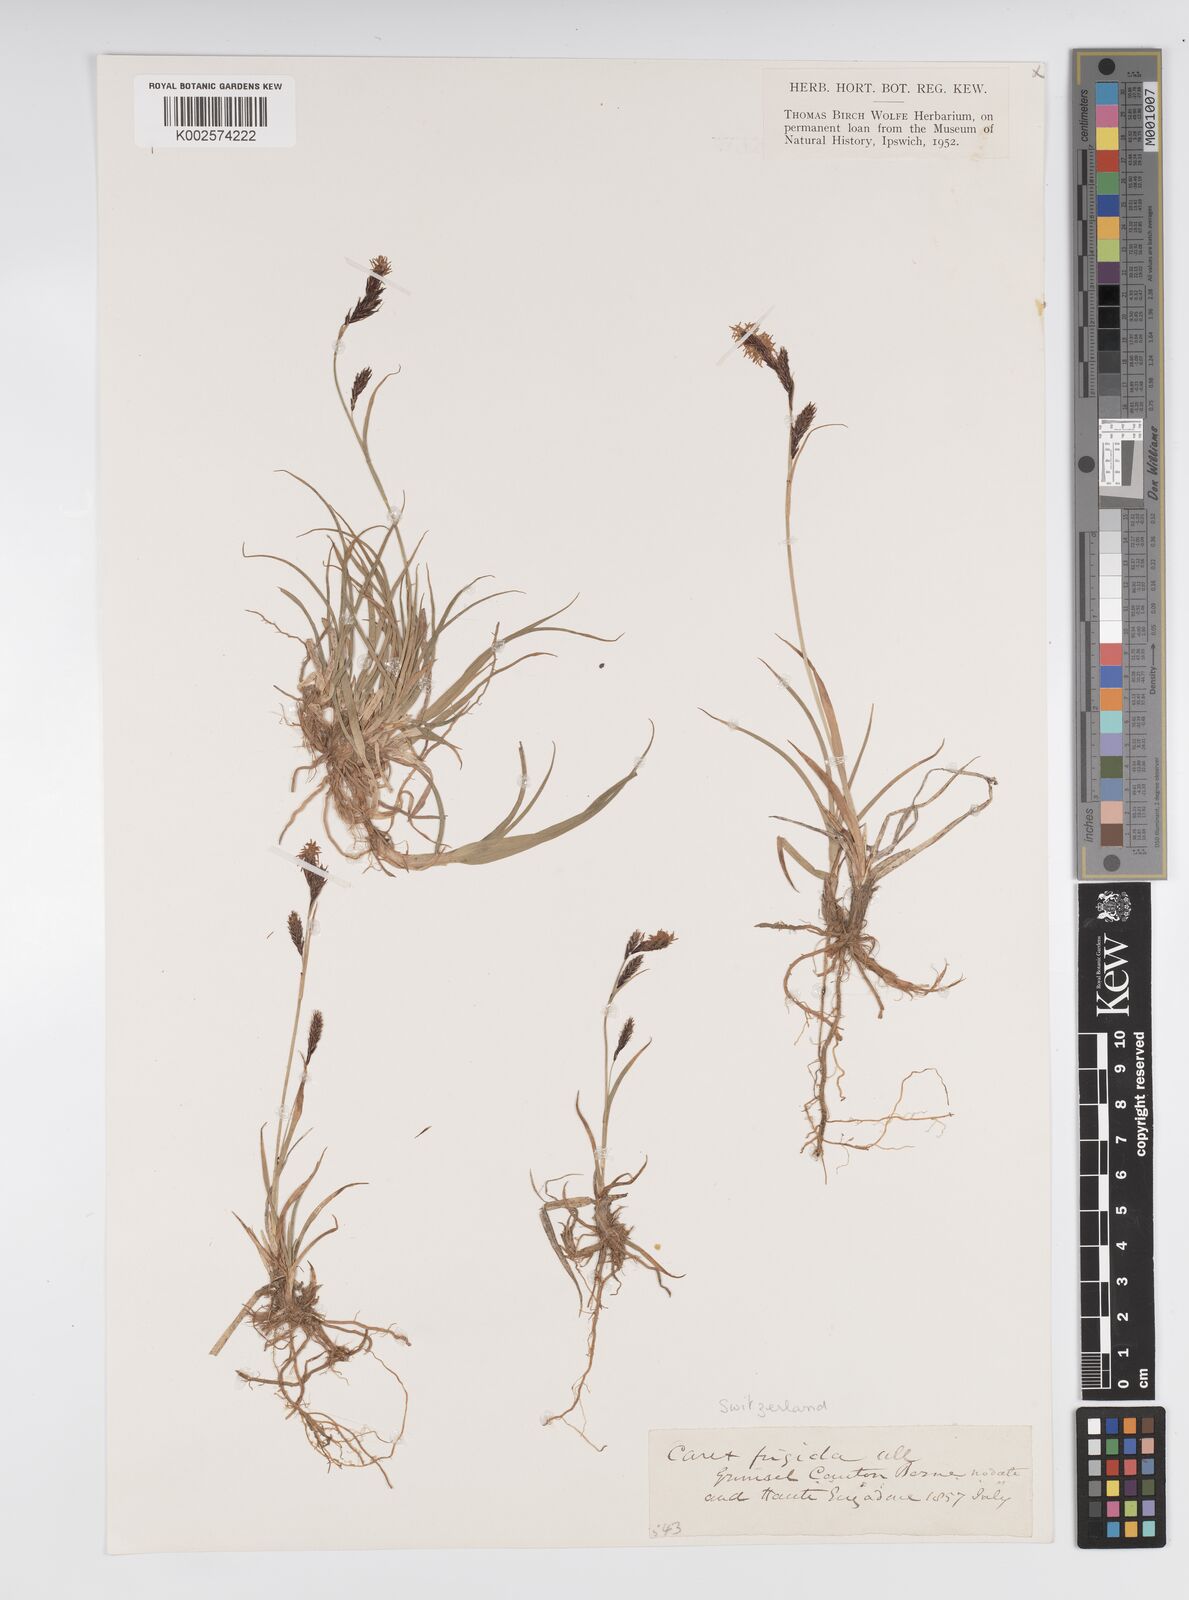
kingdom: Plantae
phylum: Tracheophyta
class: Liliopsida
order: Poales
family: Cyperaceae
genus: Carex
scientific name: Carex frigida
